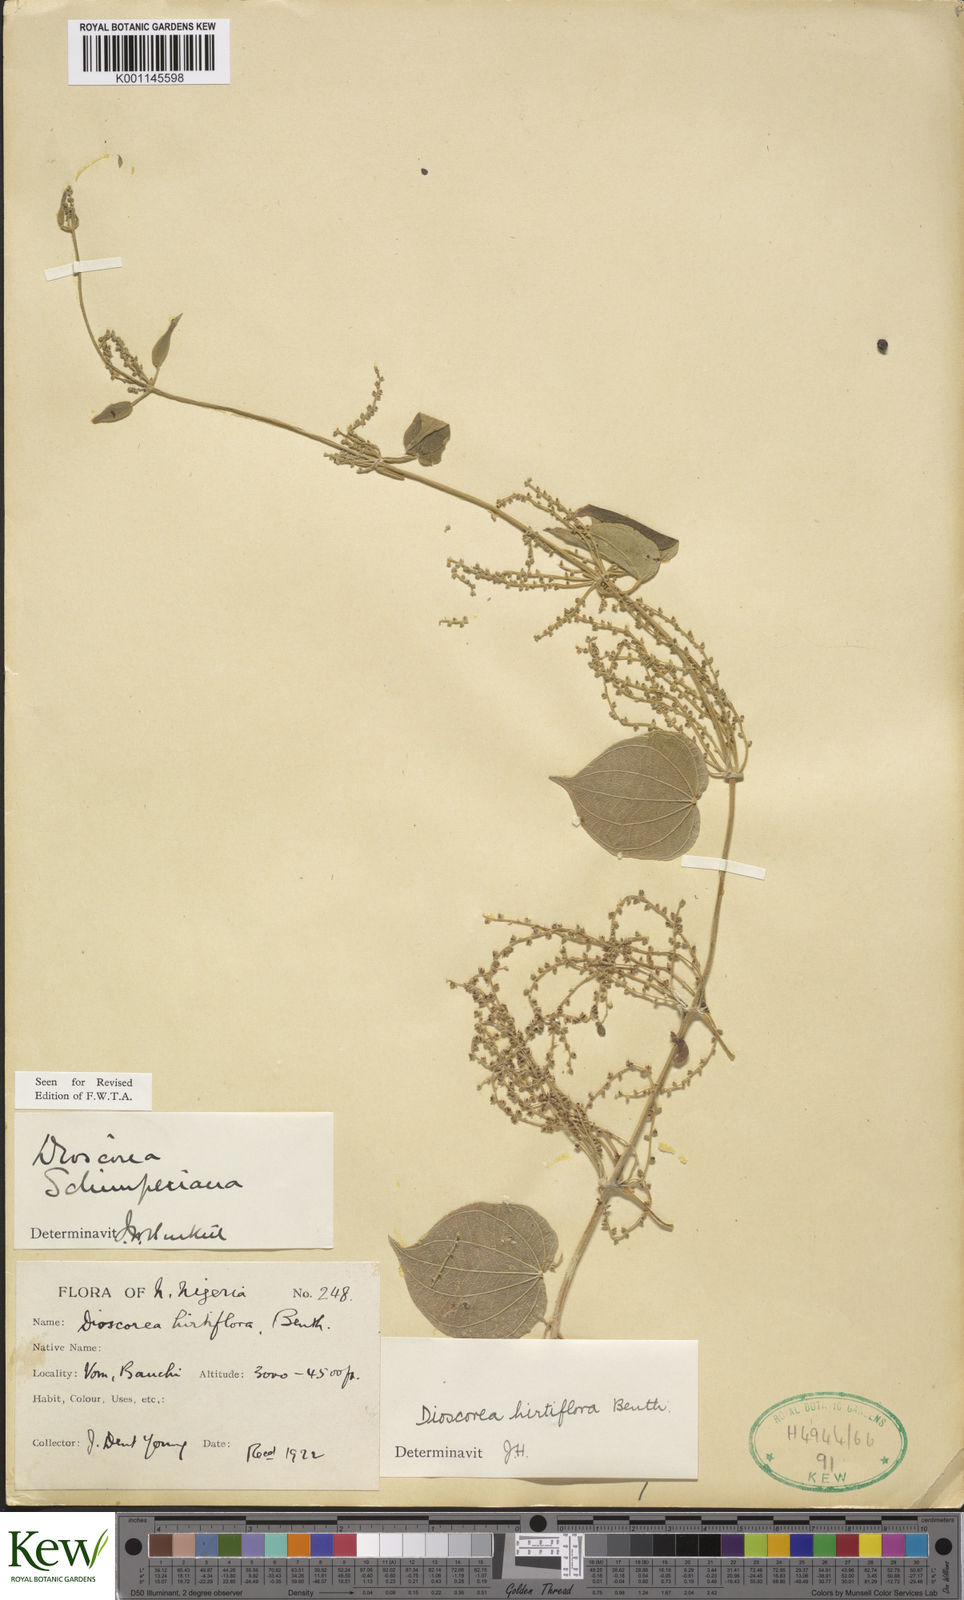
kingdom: Plantae
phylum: Tracheophyta
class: Liliopsida
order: Dioscoreales
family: Dioscoreaceae
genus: Dioscorea
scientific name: Dioscorea schimperiana
